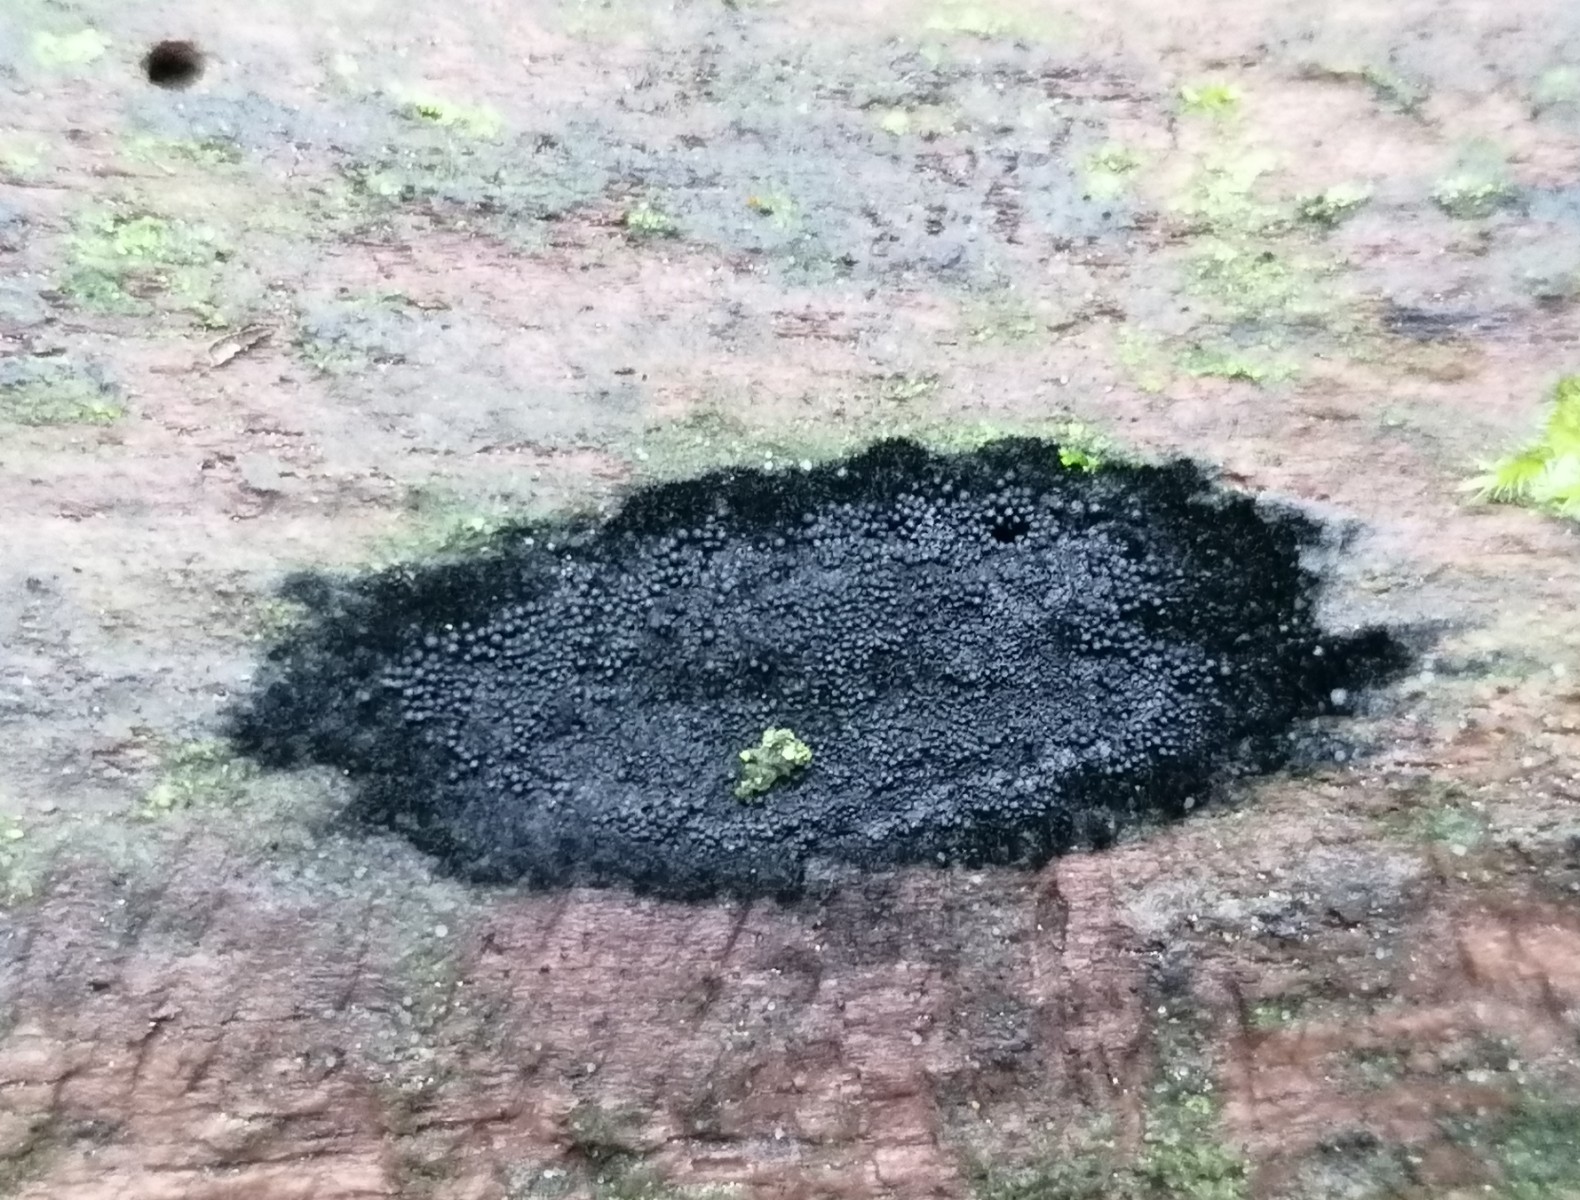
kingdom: Fungi
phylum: Ascomycota
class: Sordariomycetes
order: Coronophorales
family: Chaetosphaerellaceae
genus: Chaetosphaerella
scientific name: Chaetosphaerella phaeostroma
